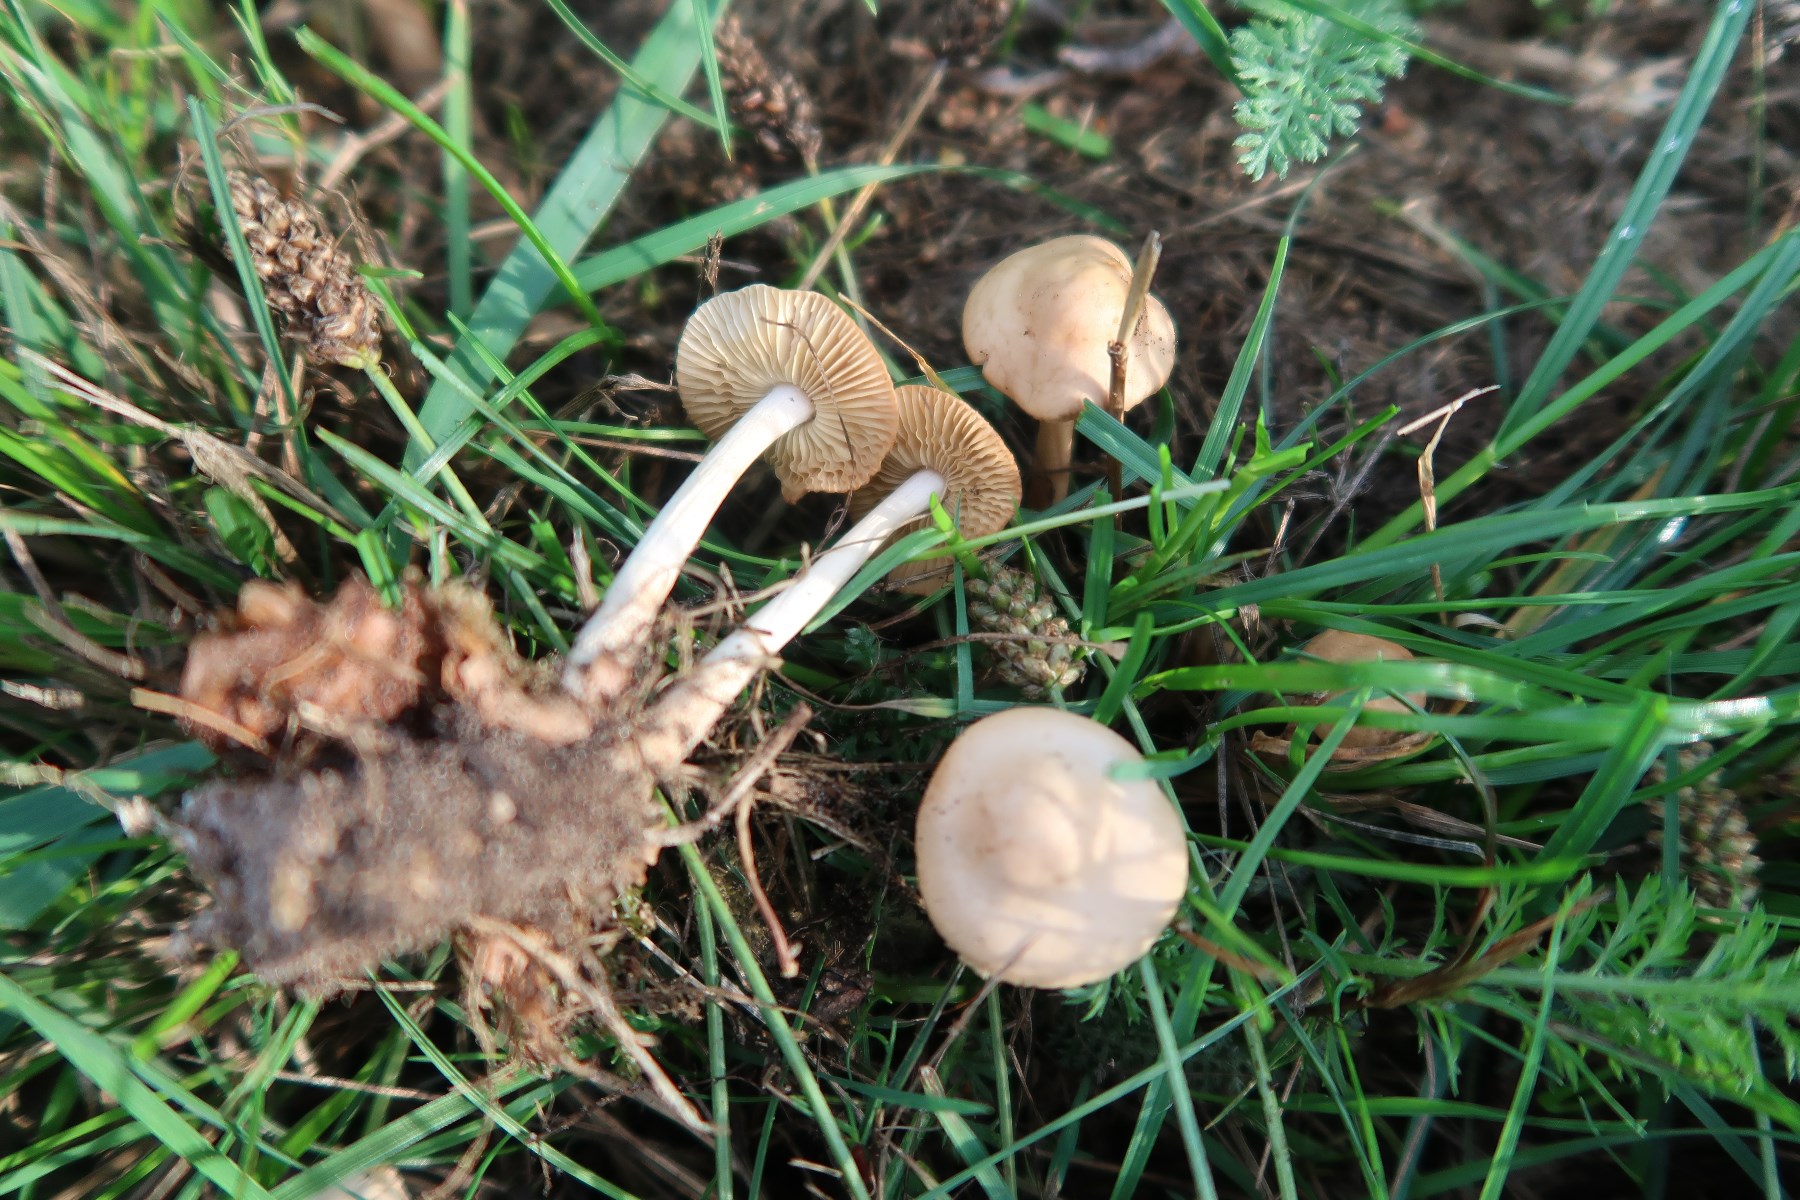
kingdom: Fungi
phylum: Basidiomycota
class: Agaricomycetes
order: Agaricales
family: Marasmiaceae
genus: Marasmius
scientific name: Marasmius oreades
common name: elledans-bruskhat
